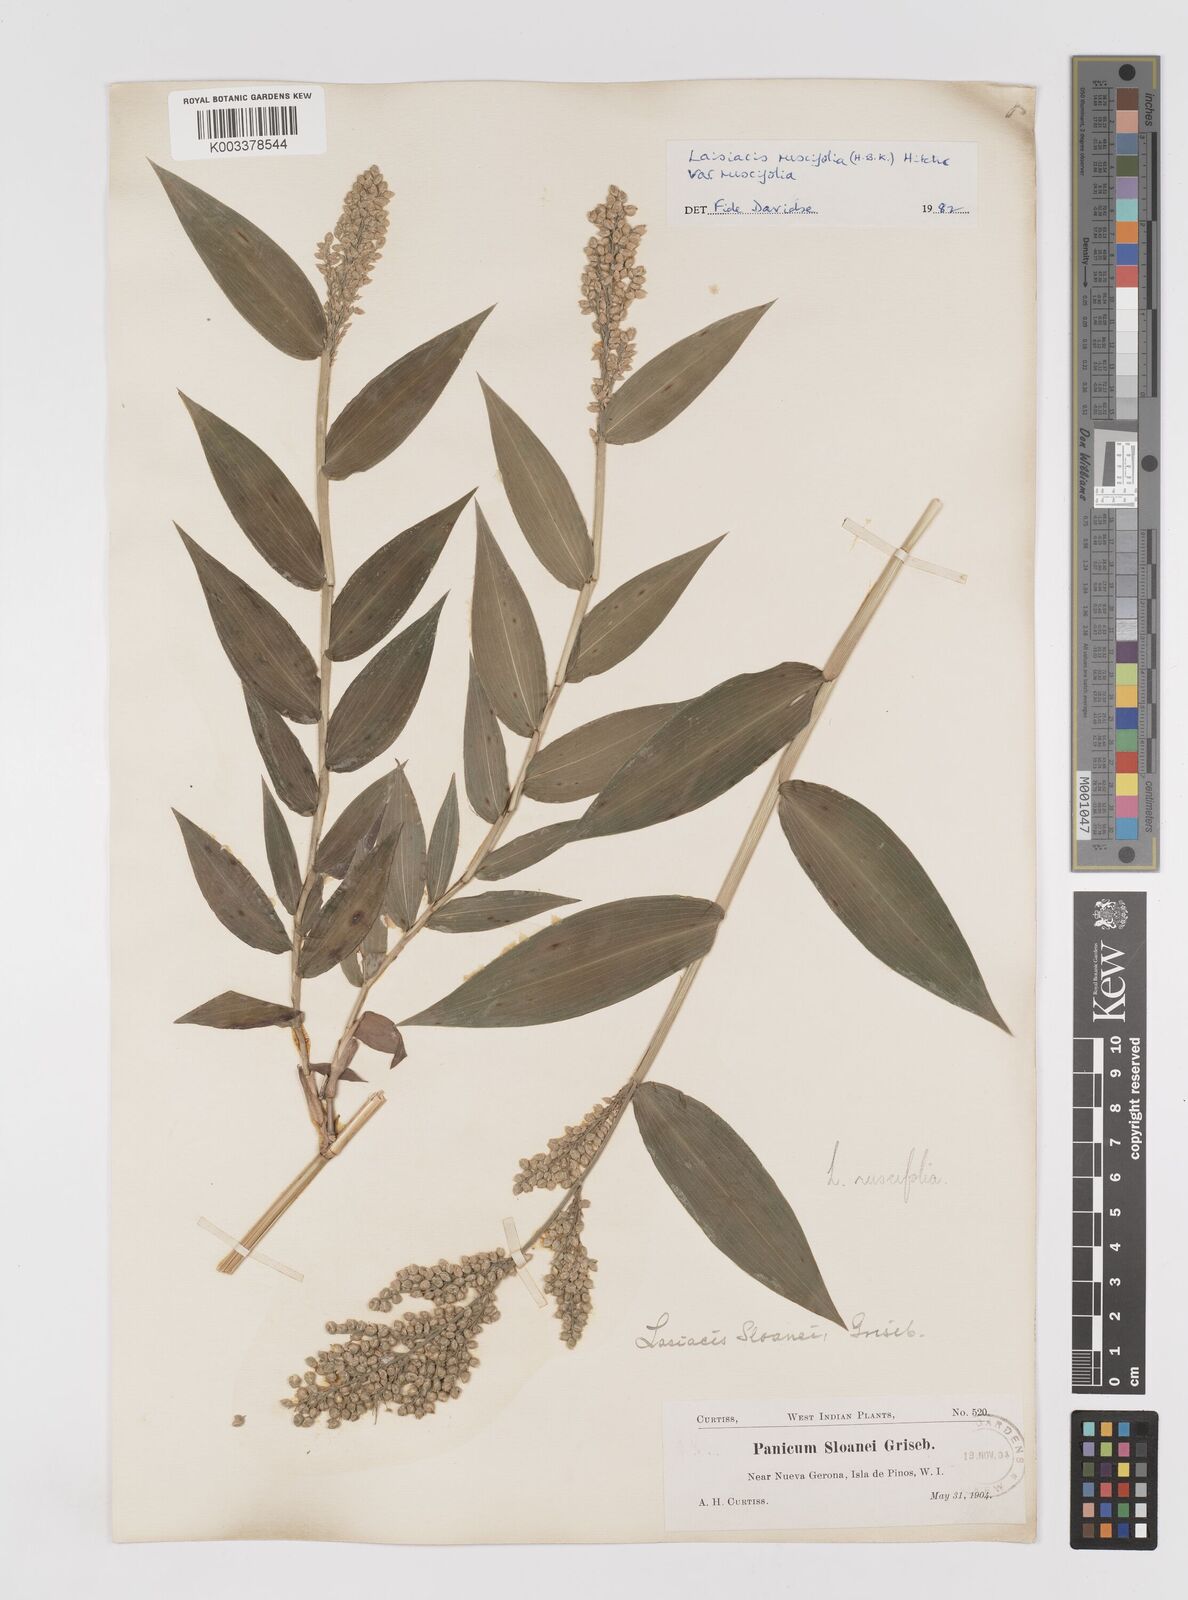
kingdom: Plantae
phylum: Tracheophyta
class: Liliopsida
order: Poales
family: Poaceae
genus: Lasiacis
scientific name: Lasiacis ruscifolia
